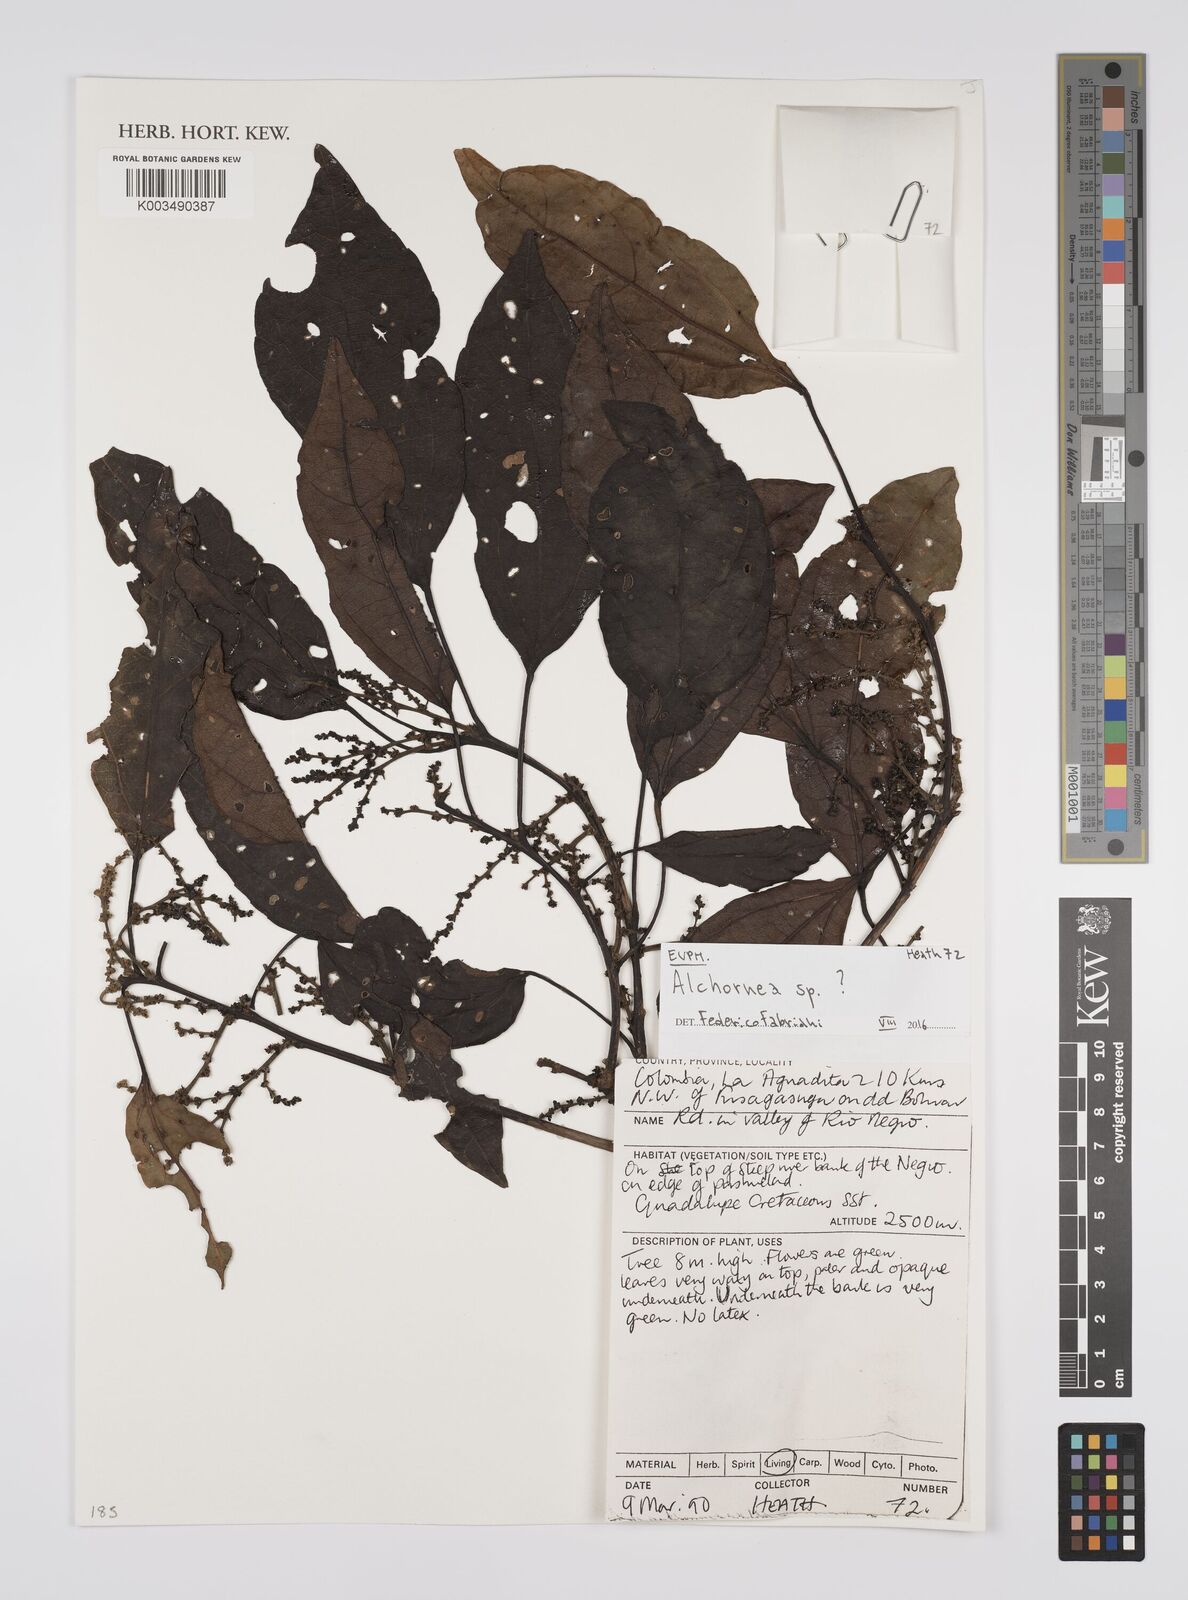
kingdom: Plantae
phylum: Tracheophyta
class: Magnoliopsida
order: Malpighiales
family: Euphorbiaceae
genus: Alchornea
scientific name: Alchornea
